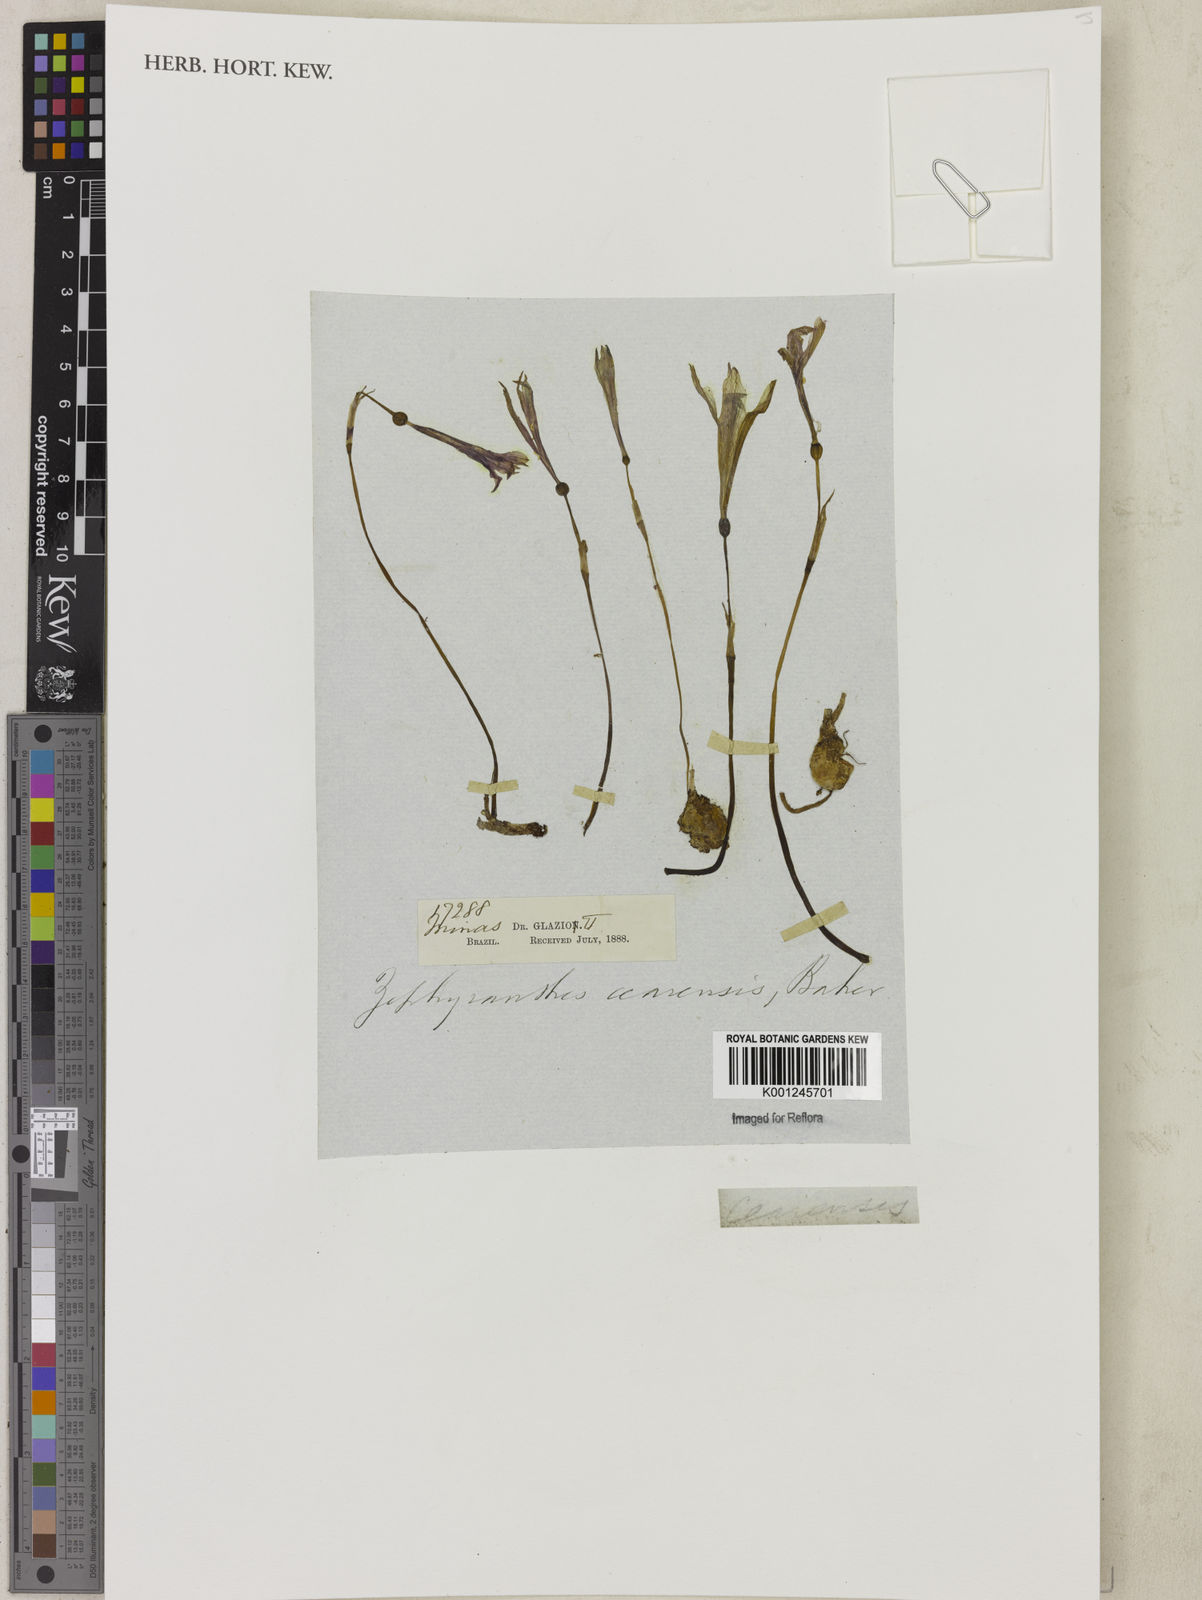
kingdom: Plantae
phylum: Tracheophyta
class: Liliopsida
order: Asparagales
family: Amaryllidaceae
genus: Zephyranthes
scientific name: Zephyranthes caerulea
